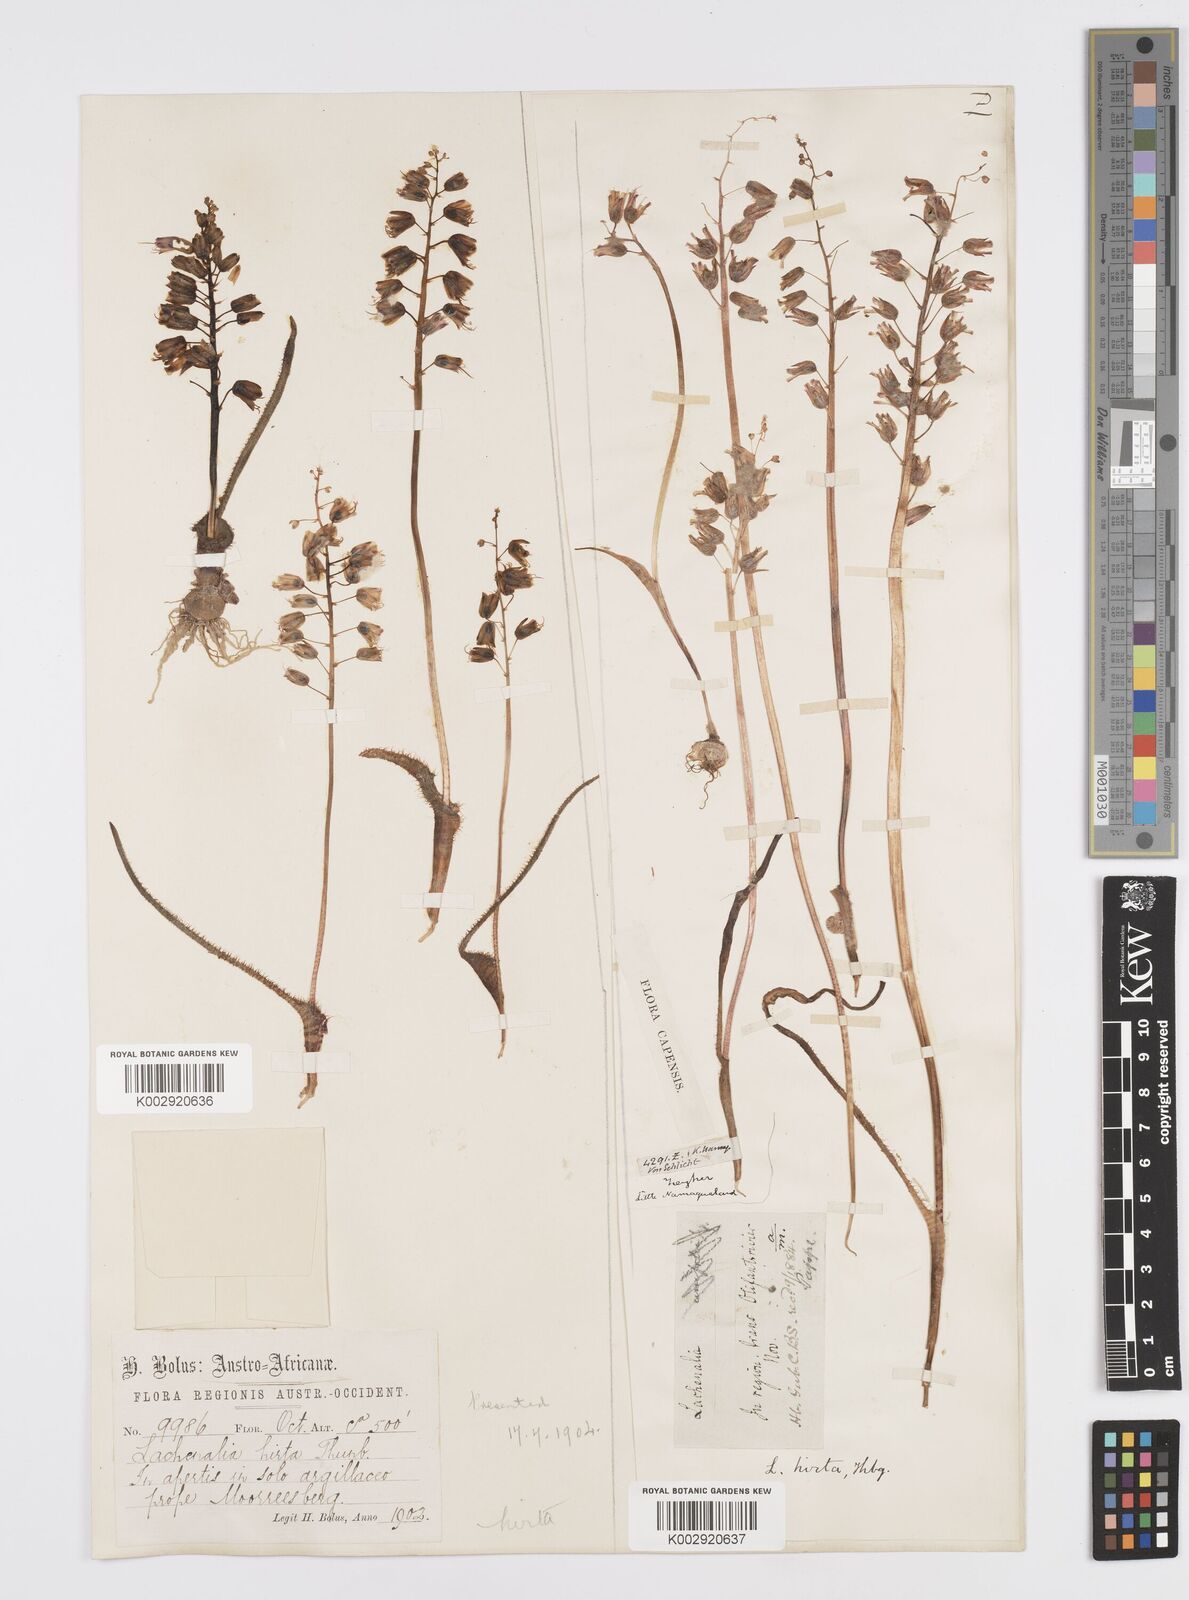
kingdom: Plantae
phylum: Tracheophyta
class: Liliopsida
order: Asparagales
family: Asparagaceae
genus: Lachenalia
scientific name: Lachenalia hirta
